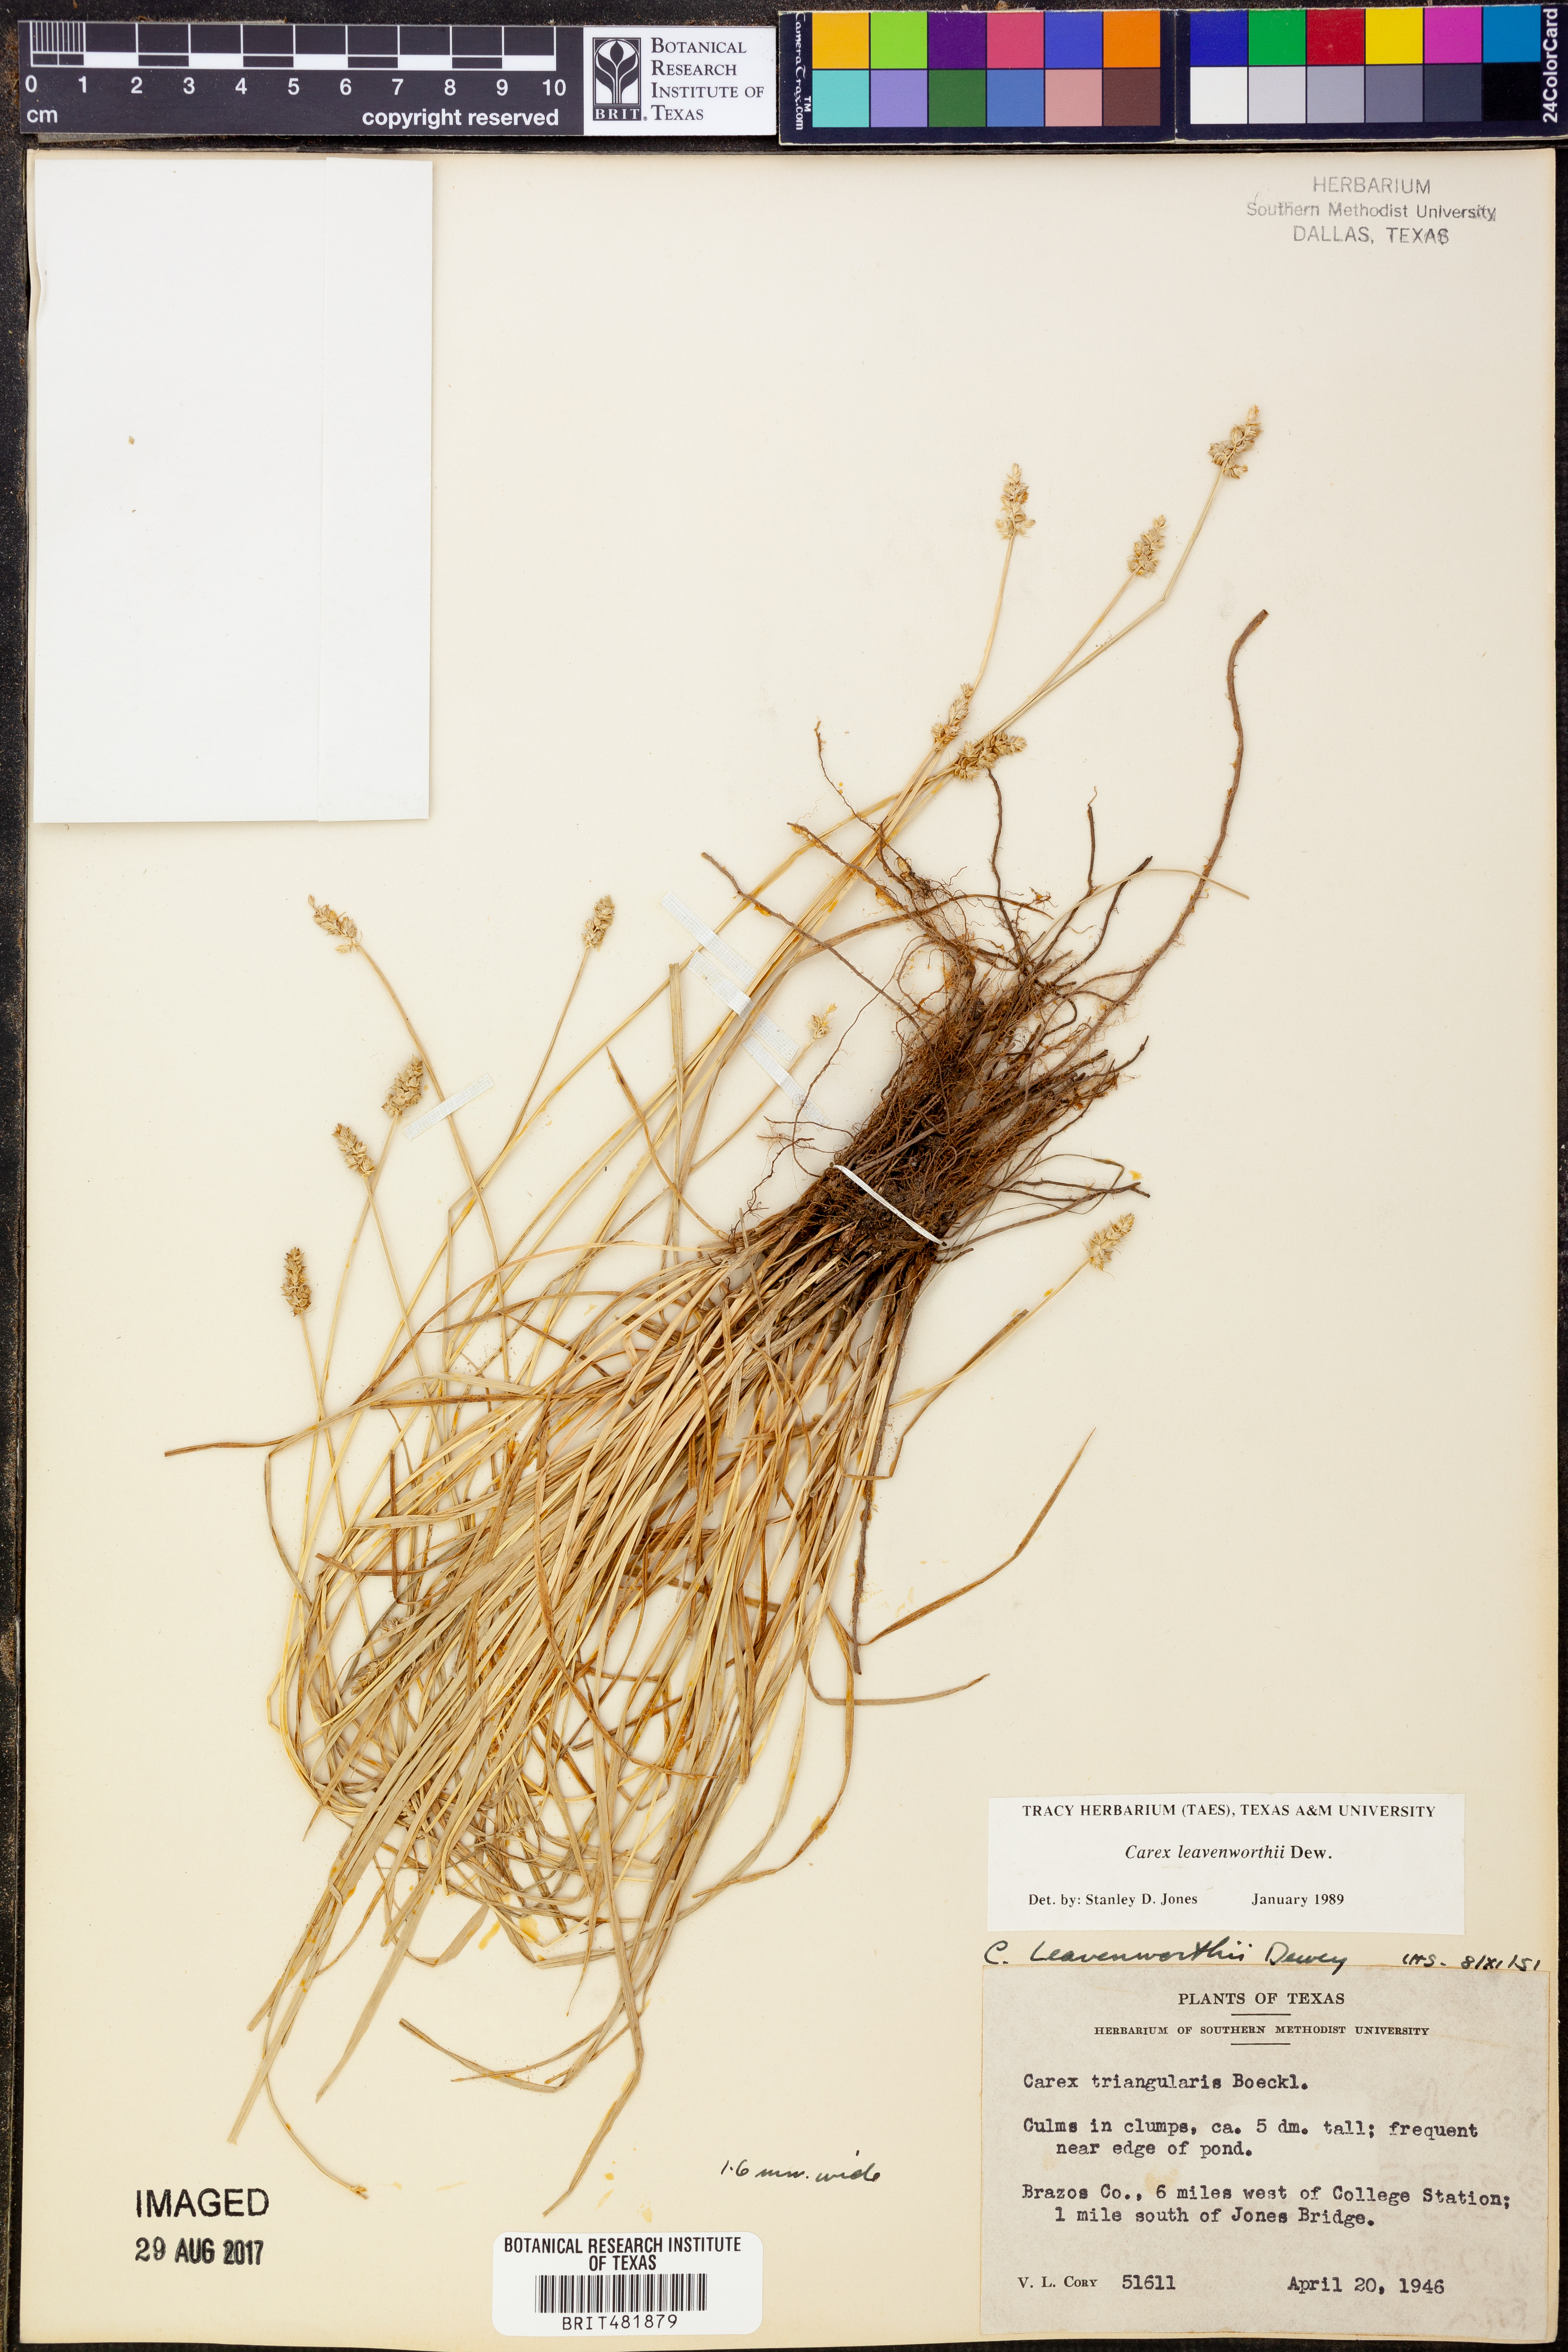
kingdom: Plantae
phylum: Tracheophyta
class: Liliopsida
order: Poales
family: Cyperaceae
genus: Carex
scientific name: Carex leavenworthii
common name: Leavenworth's bracted sedge
